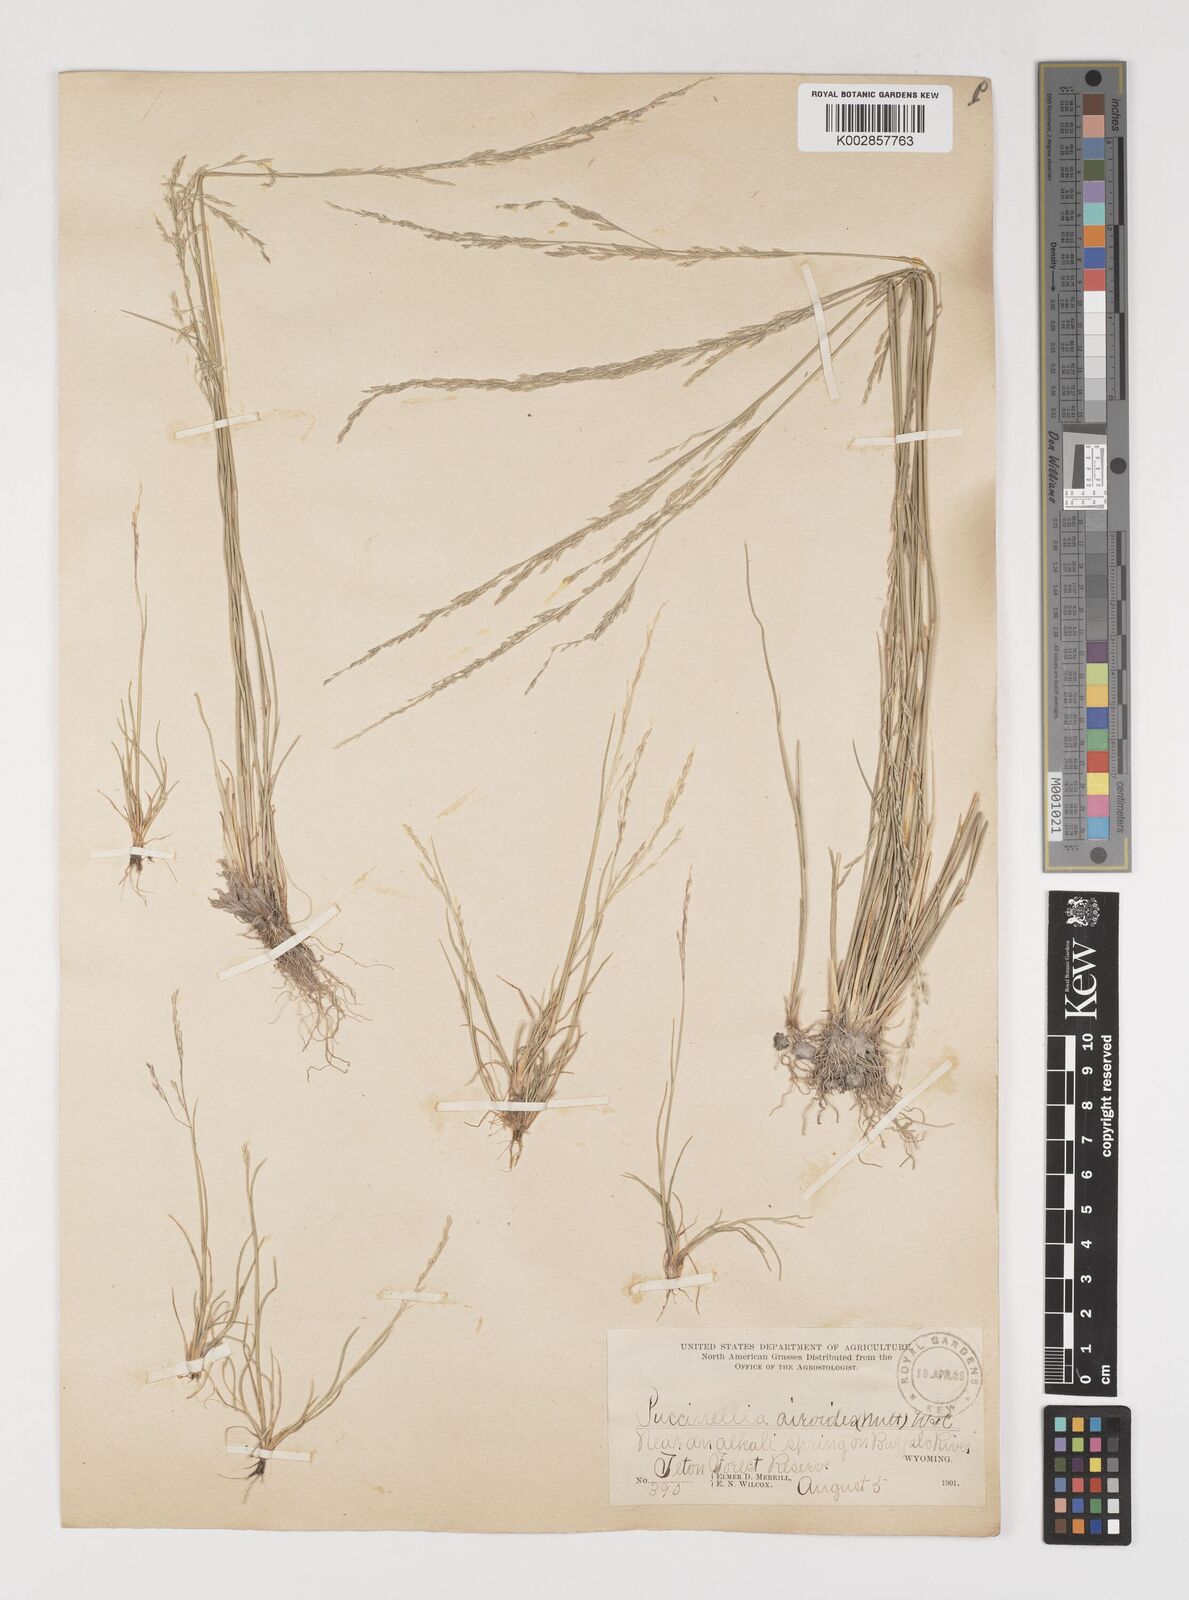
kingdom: Plantae
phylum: Tracheophyta
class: Liliopsida
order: Poales
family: Poaceae
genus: Puccinellia
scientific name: Puccinellia nuttalliana
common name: Nuttall's alkali grass
